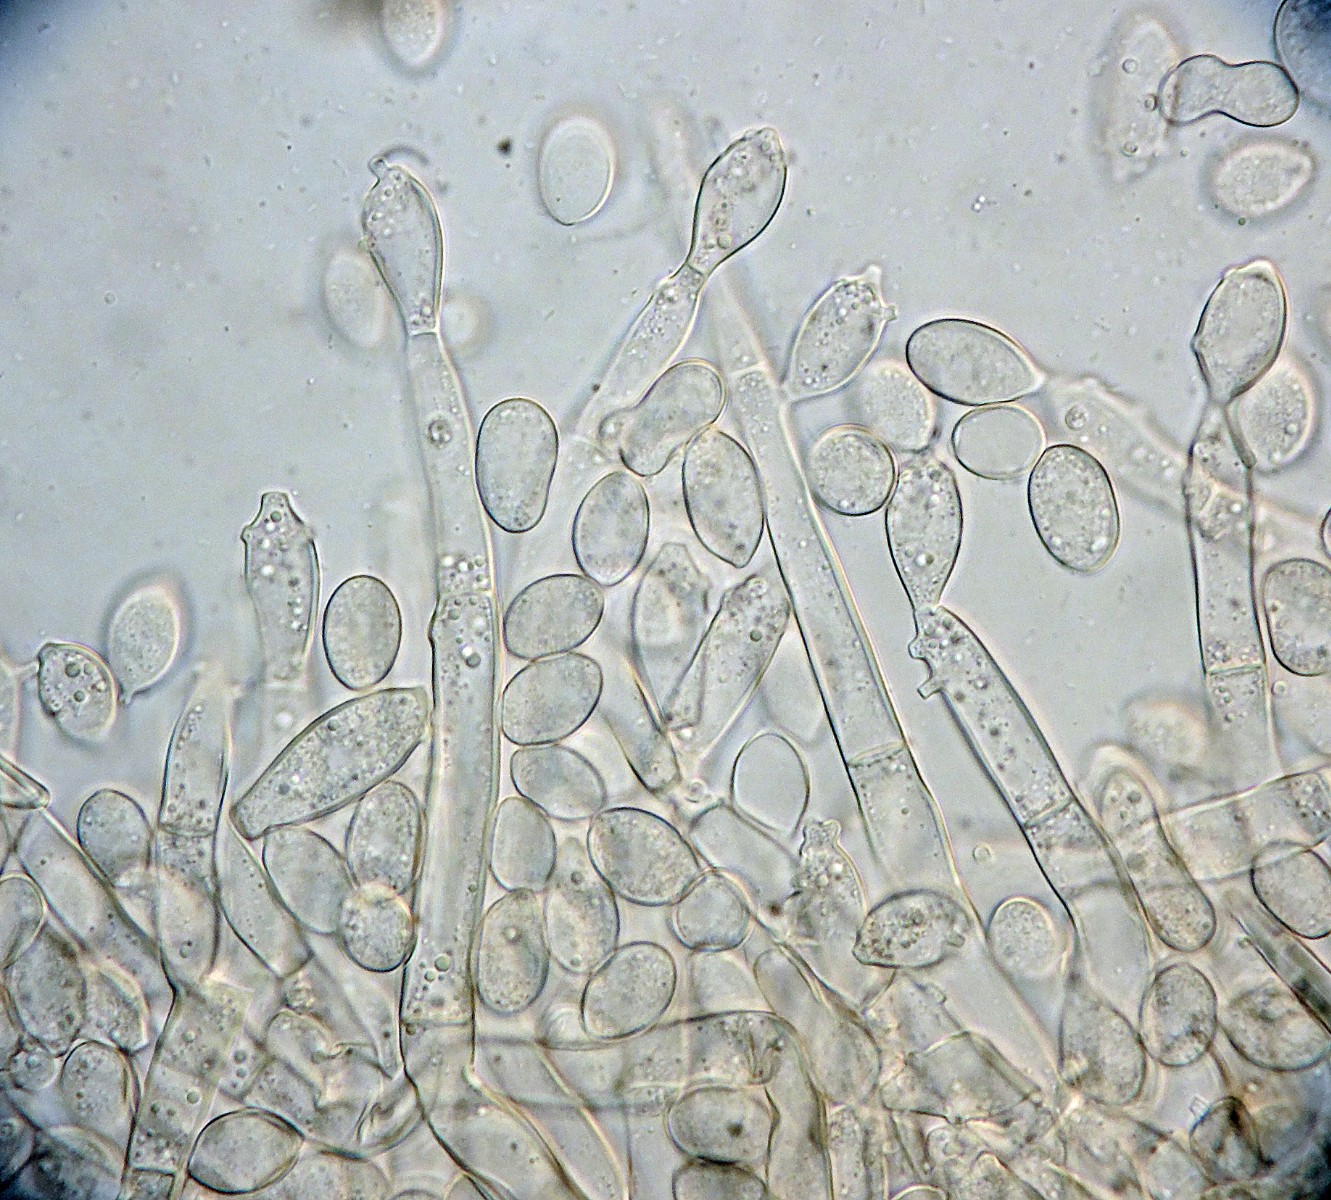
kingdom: Fungi
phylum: Basidiomycota
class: Agaricomycetes
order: Cantharellales
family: Botryobasidiaceae
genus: Botryobasidium
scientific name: Botryobasidium capitatum
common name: kalkhvid spindhinde
